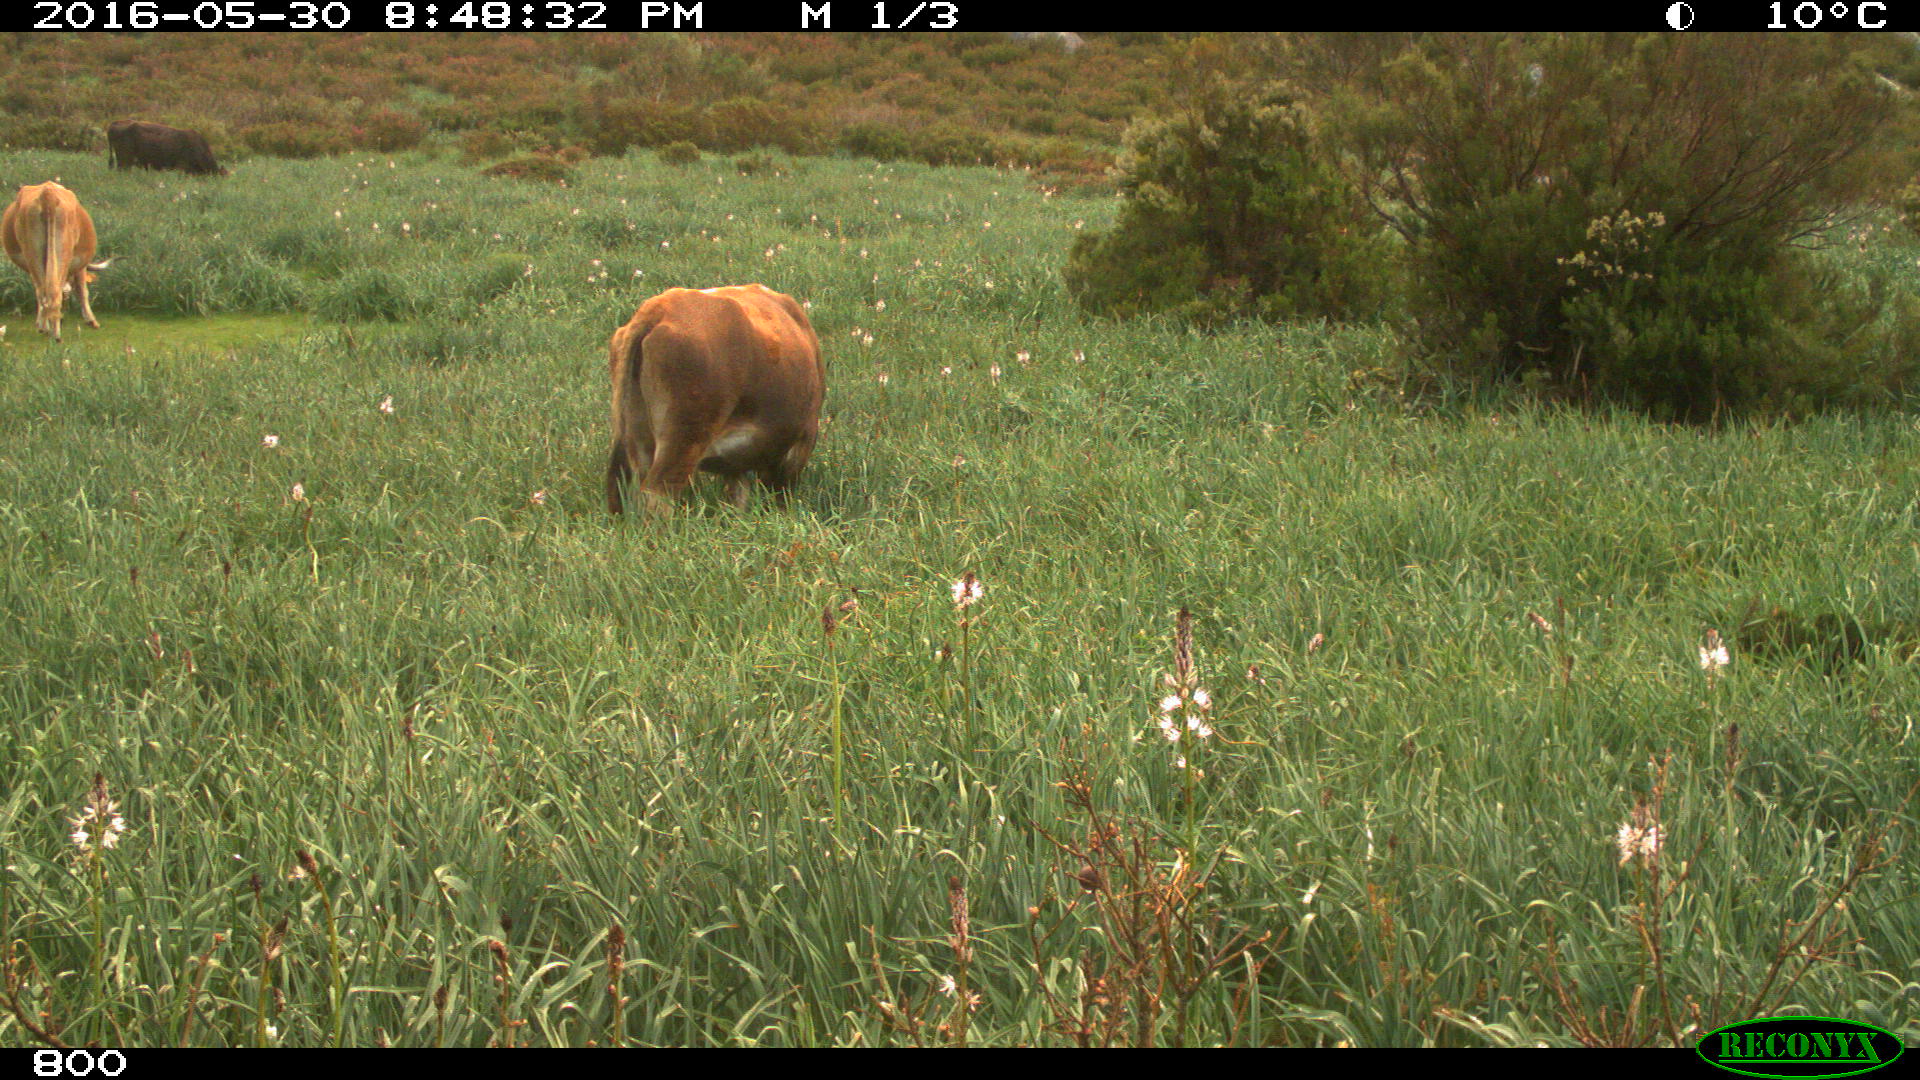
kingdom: Animalia
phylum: Chordata
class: Mammalia
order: Artiodactyla
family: Bovidae
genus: Bos
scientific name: Bos taurus
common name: Domesticated cattle
